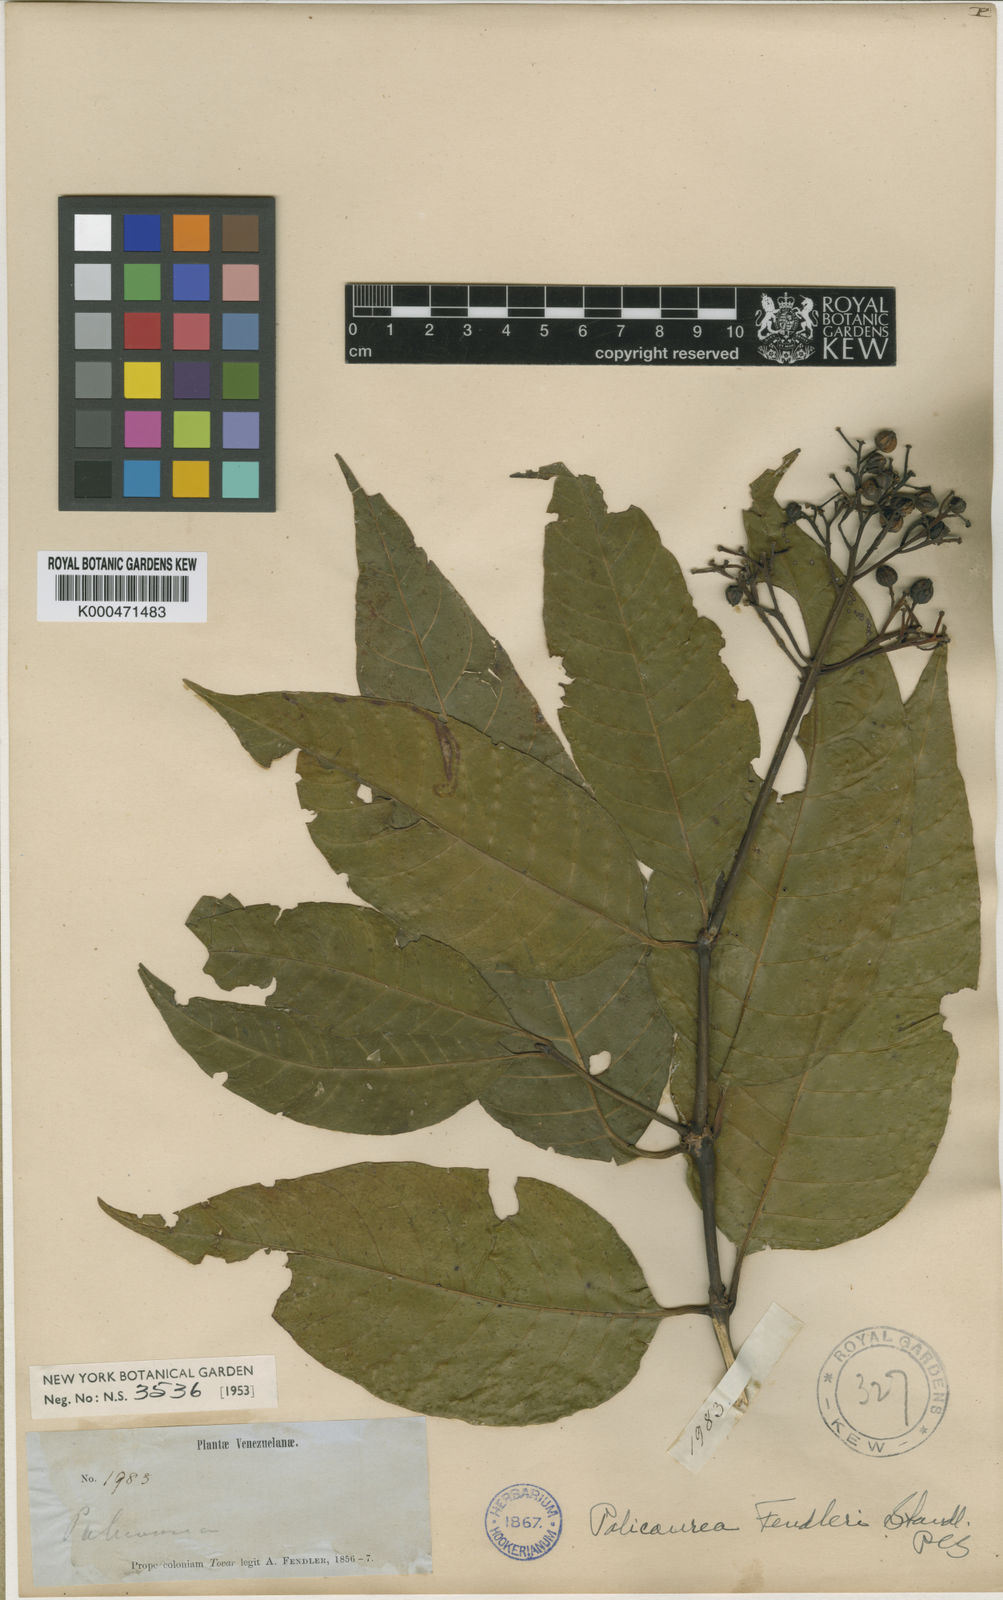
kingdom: Plantae
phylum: Tracheophyta
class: Magnoliopsida
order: Gentianales
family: Rubiaceae
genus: Palicourea
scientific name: Palicourea semirasa
